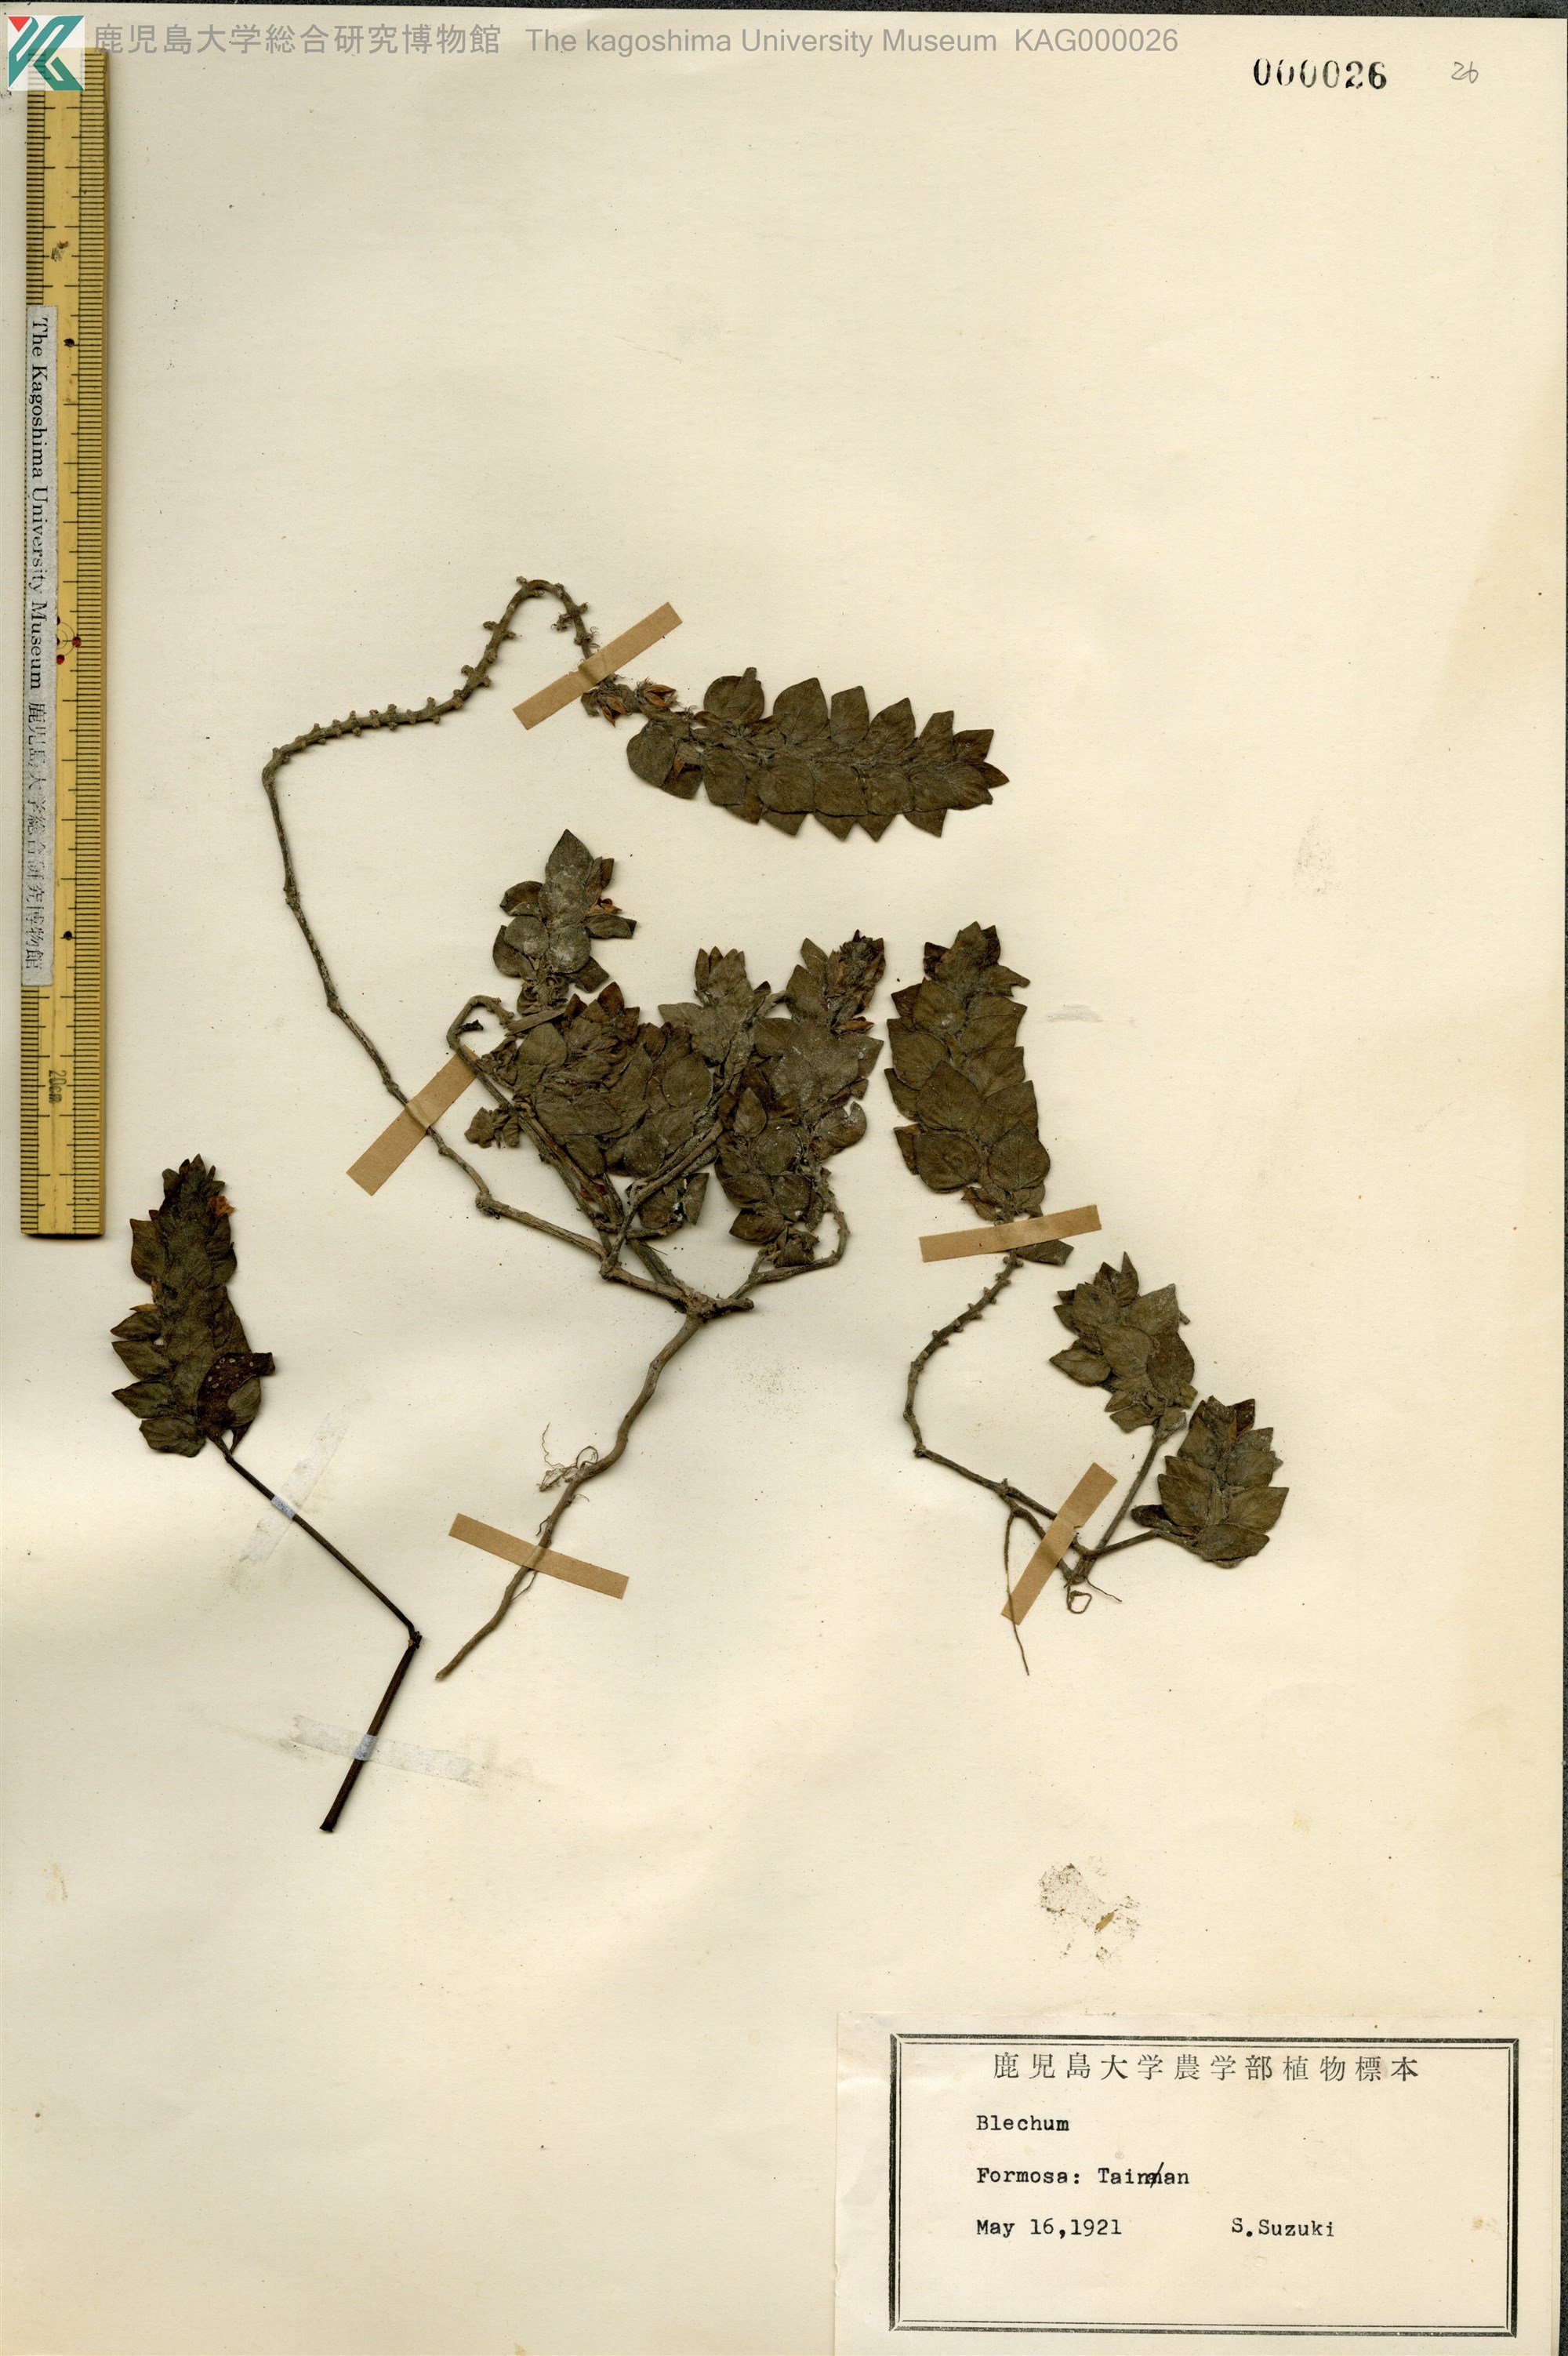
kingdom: Plantae
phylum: Tracheophyta
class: Polypodiopsida
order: Polypodiales
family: Blechnaceae
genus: Blechum
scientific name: Blechum
